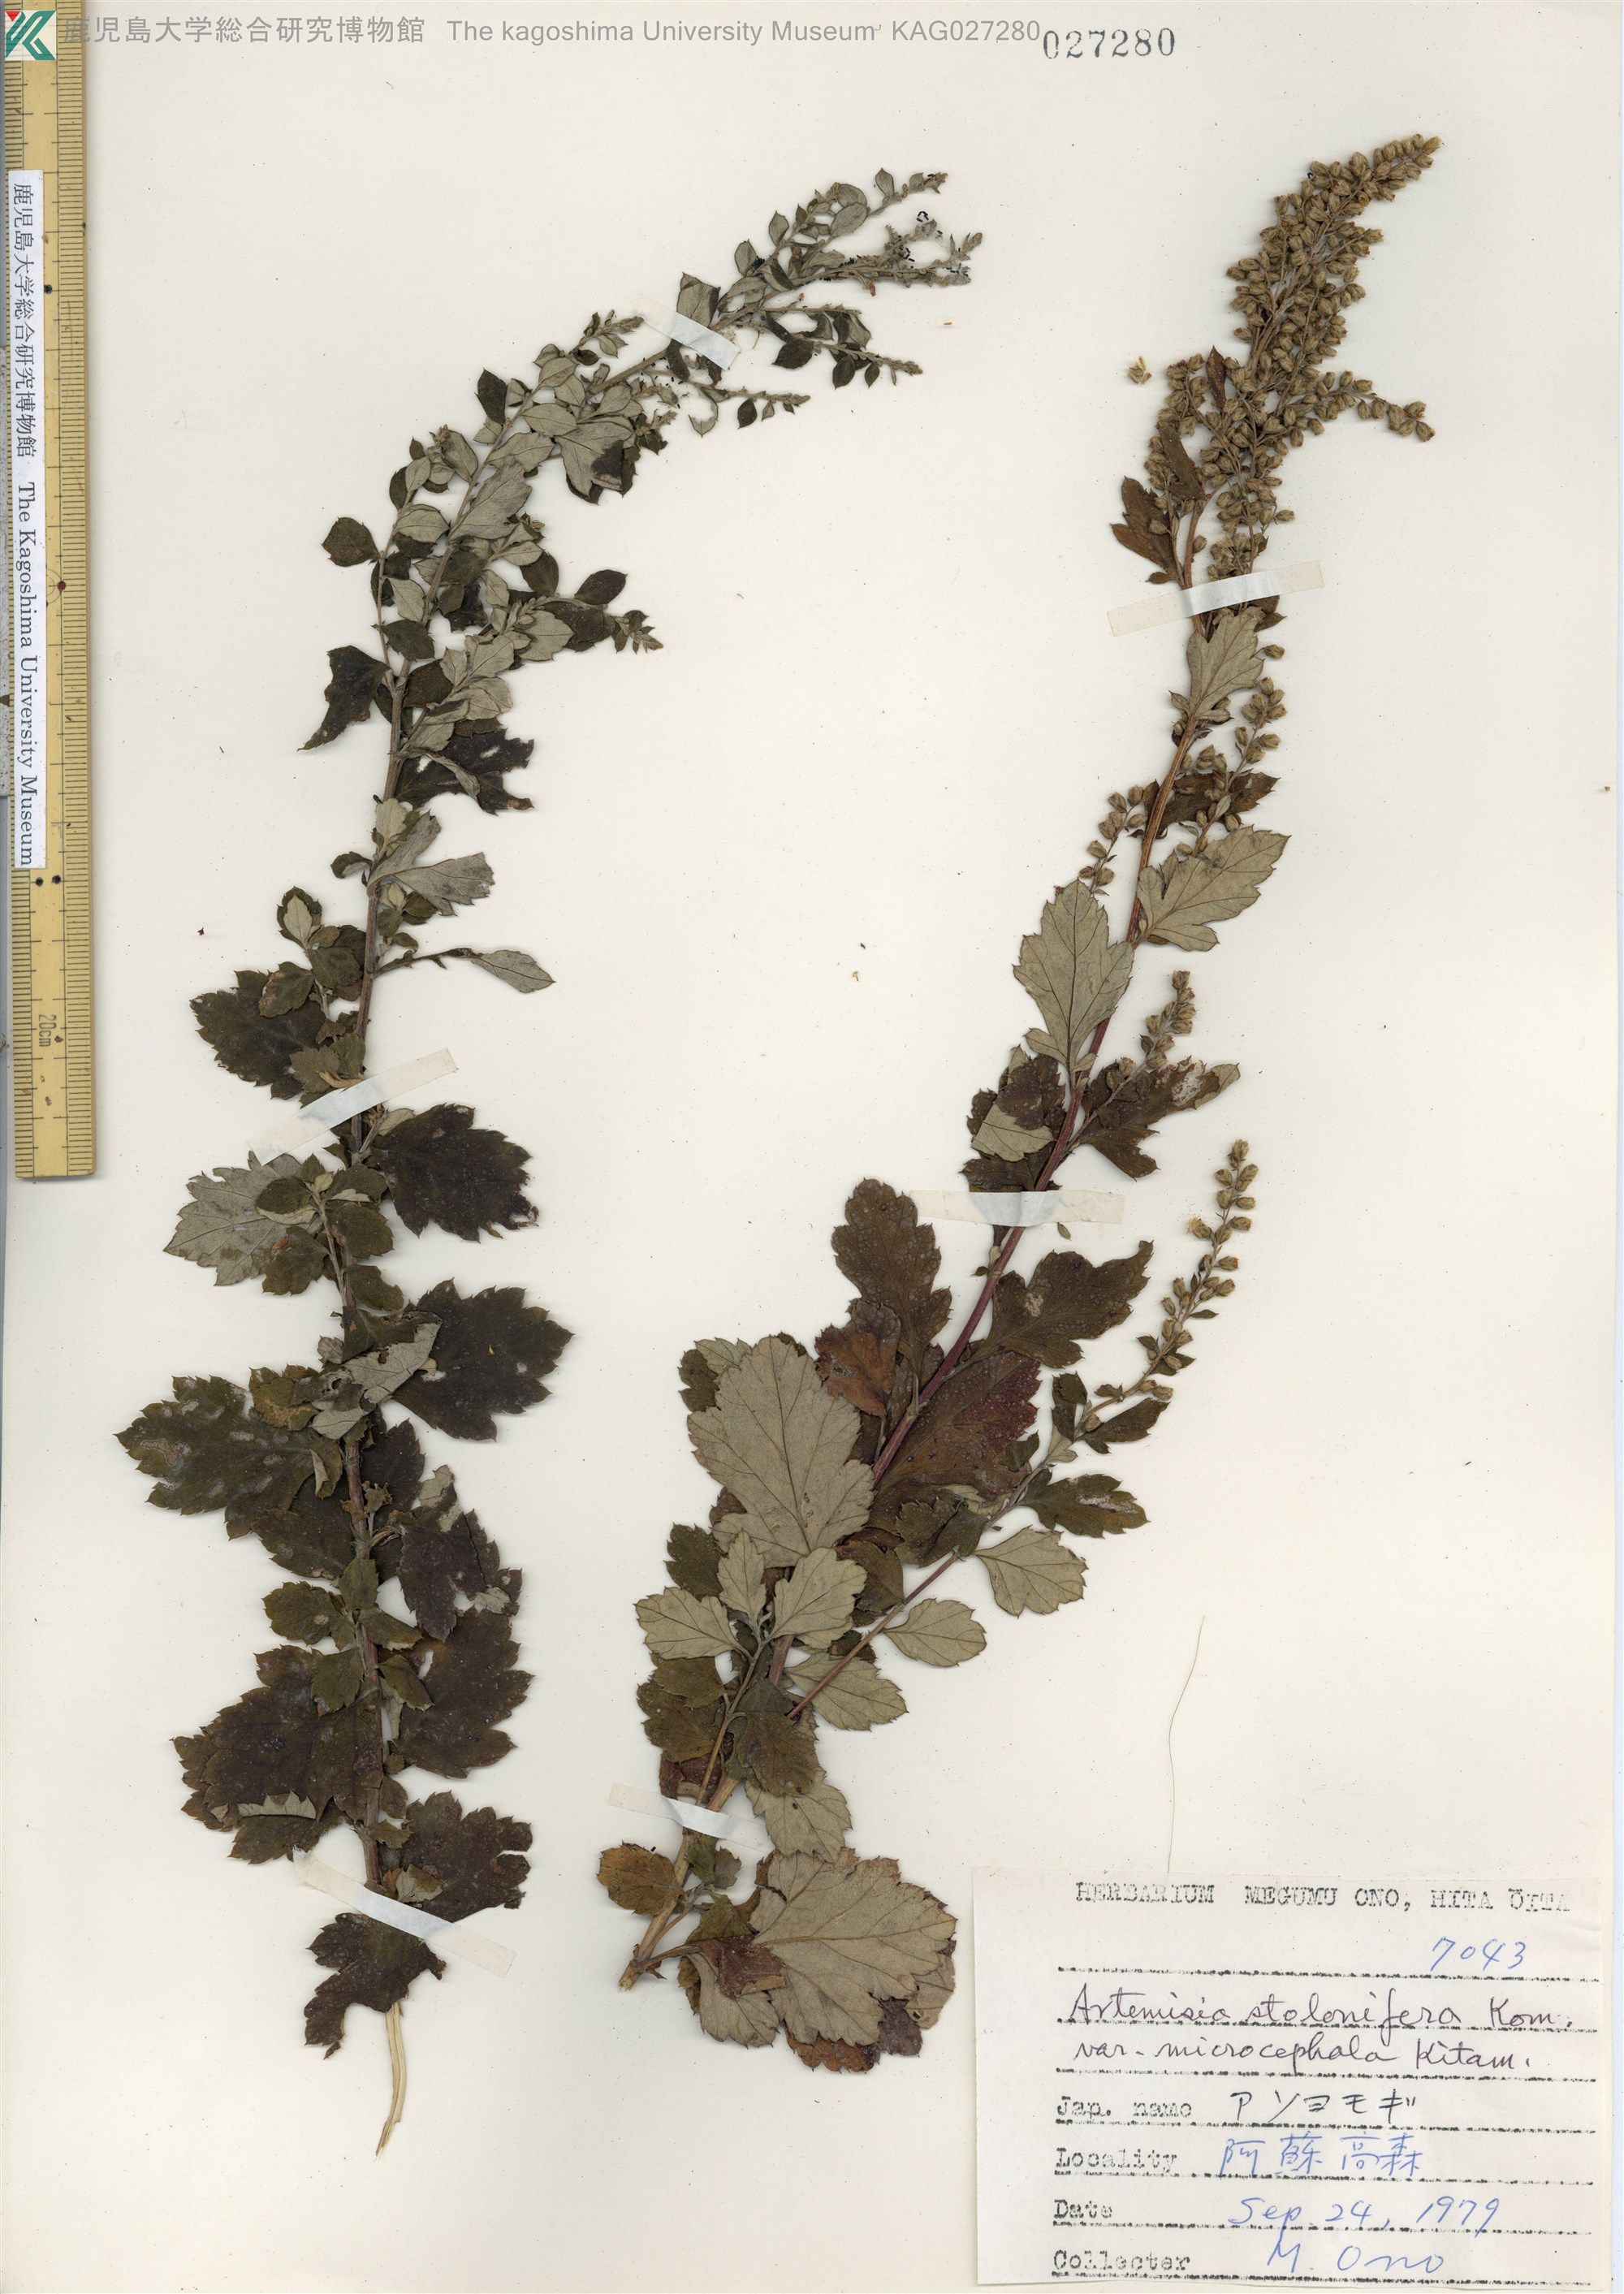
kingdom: Plantae
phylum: Tracheophyta
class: Magnoliopsida
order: Asterales
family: Asteraceae
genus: Artemisia
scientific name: Artemisia stolonifera
